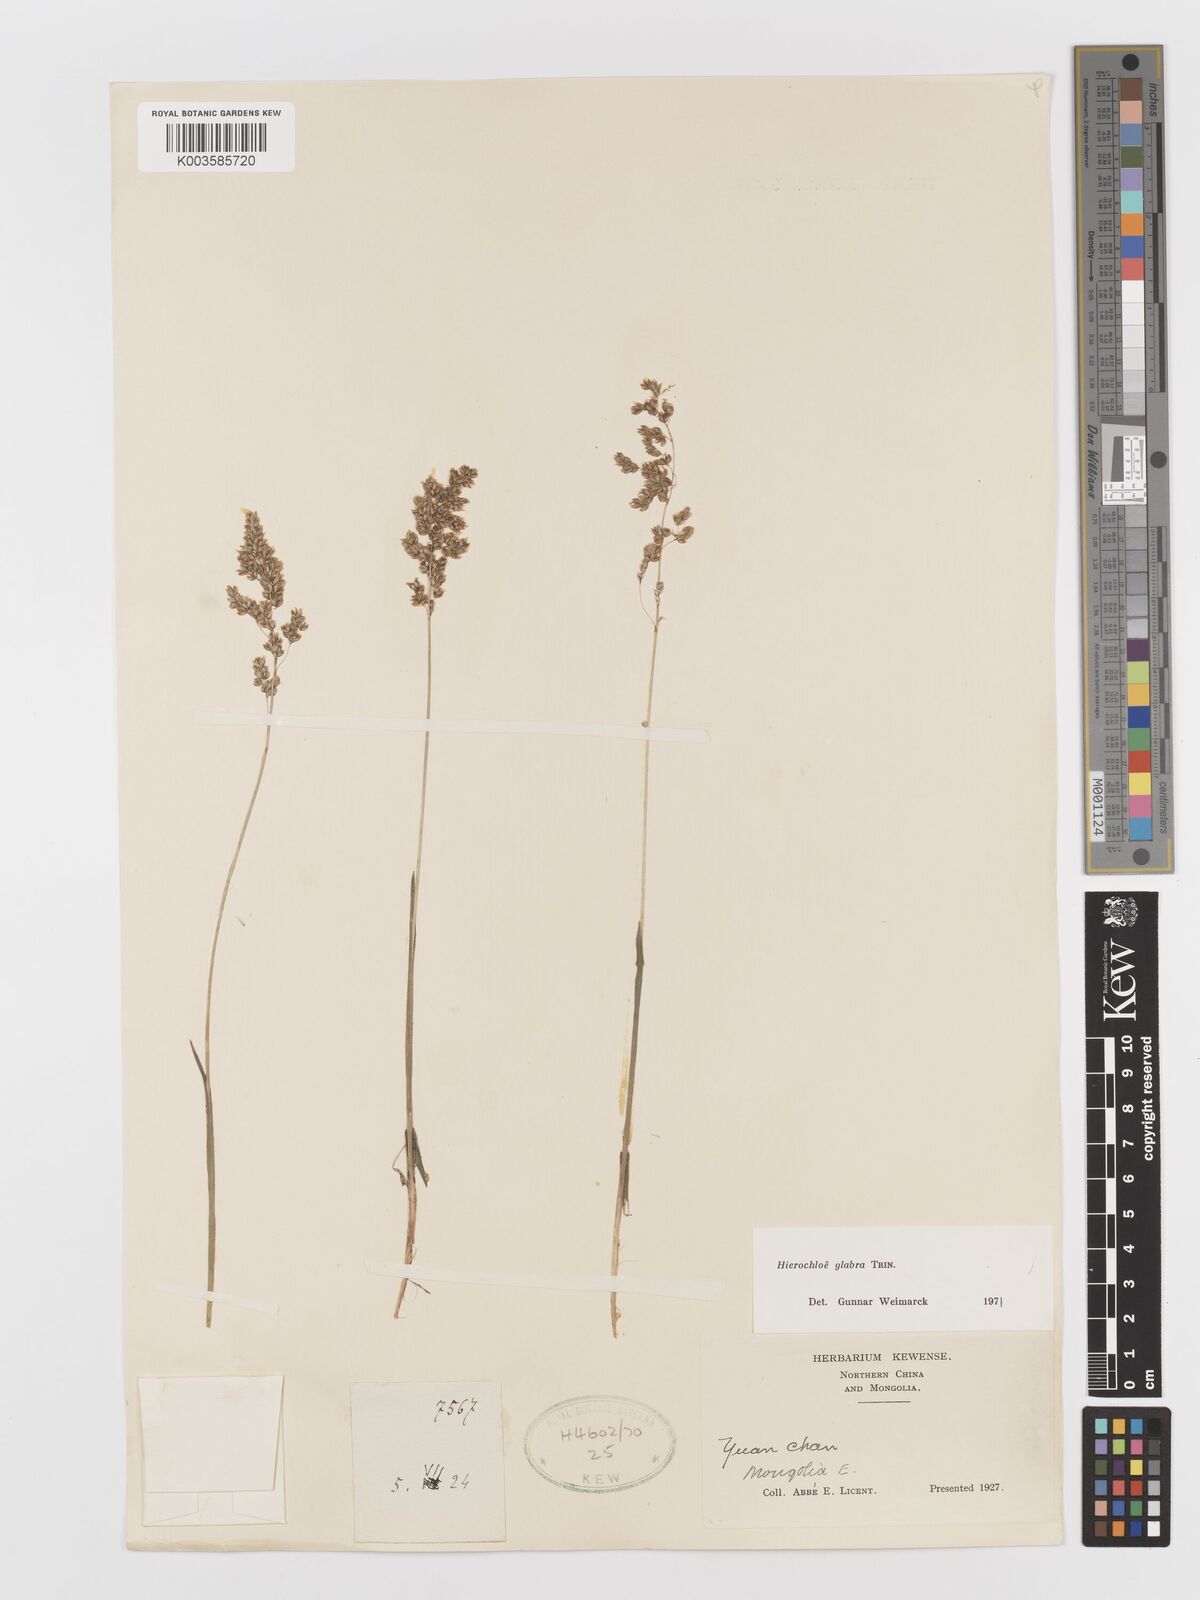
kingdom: Plantae
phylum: Tracheophyta
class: Liliopsida
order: Poales
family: Poaceae
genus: Anthoxanthum
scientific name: Anthoxanthum glabrum
